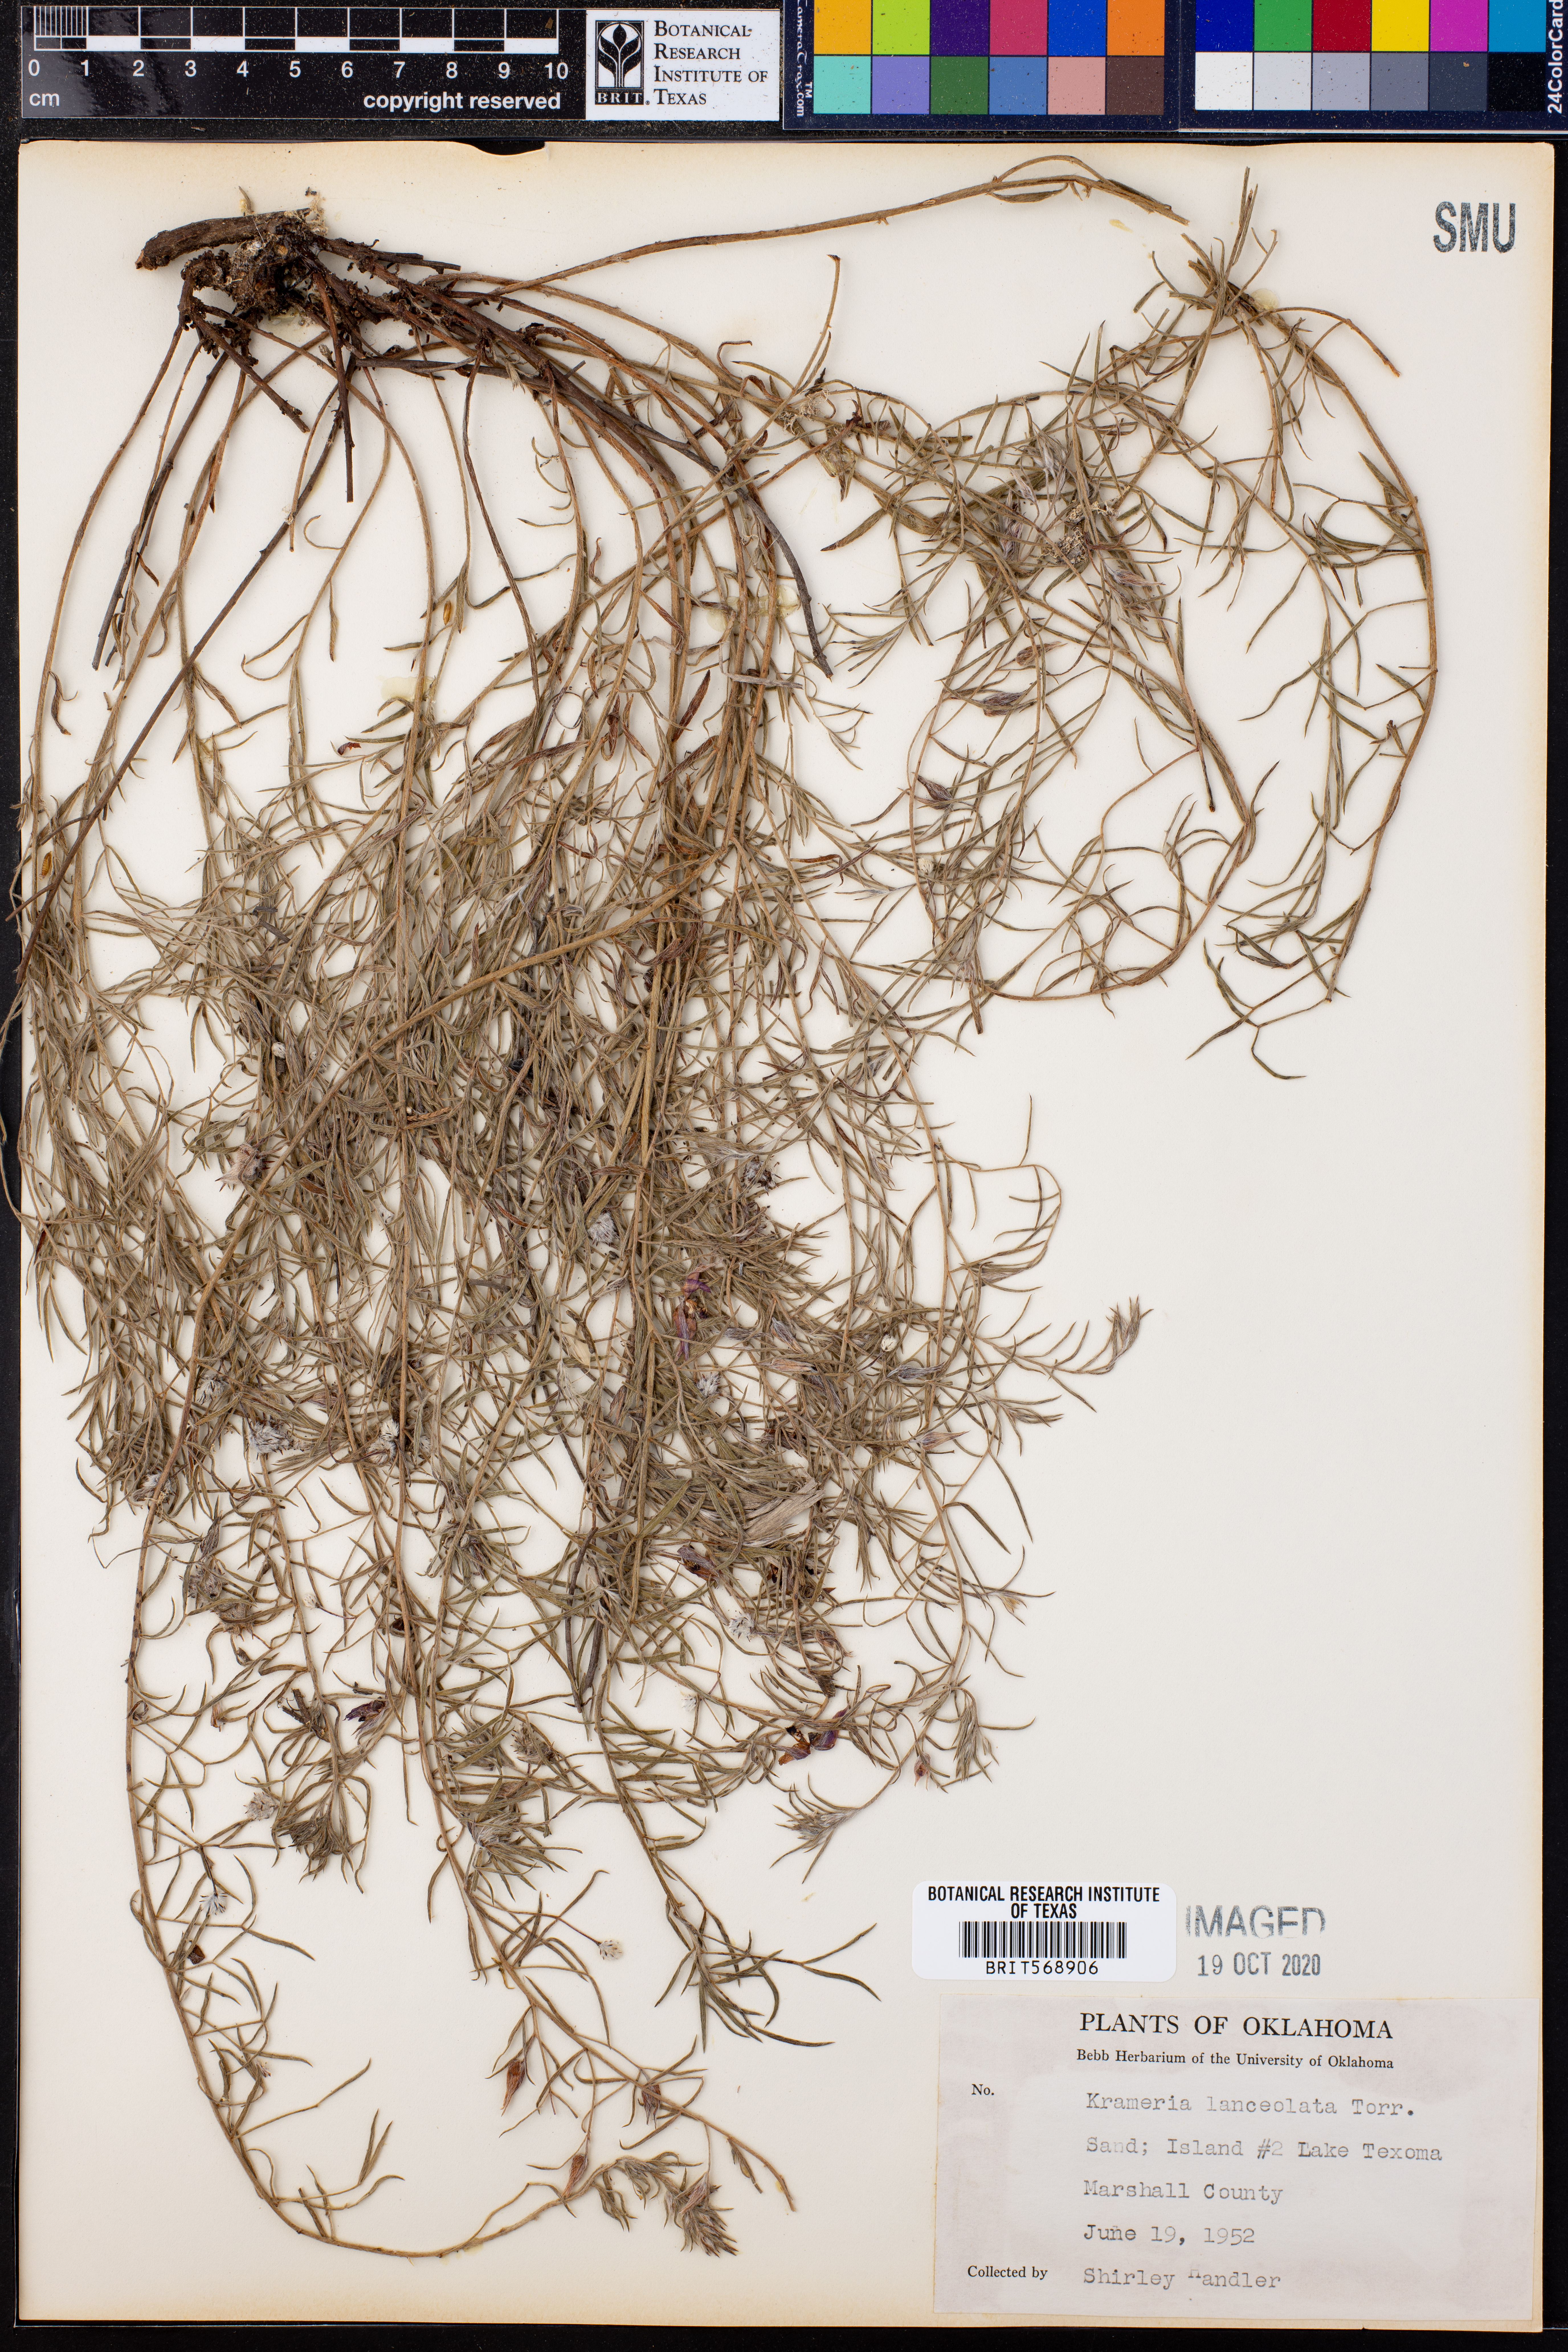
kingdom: Plantae
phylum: Tracheophyta
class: Magnoliopsida
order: Zygophyllales
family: Krameriaceae
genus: Krameria
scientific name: Krameria lanceolata
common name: Ratany
